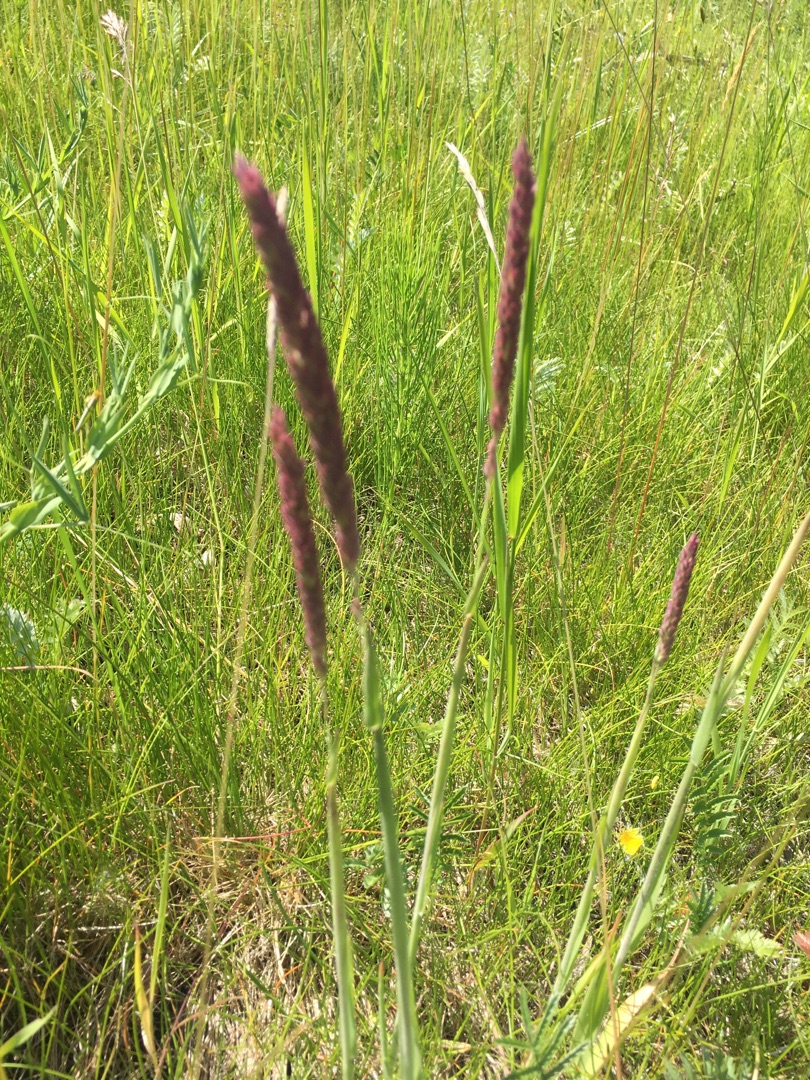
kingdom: Plantae
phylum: Tracheophyta
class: Liliopsida
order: Poales
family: Poaceae
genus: Holcus
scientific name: Holcus lanatus
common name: Fløjlsgræs
